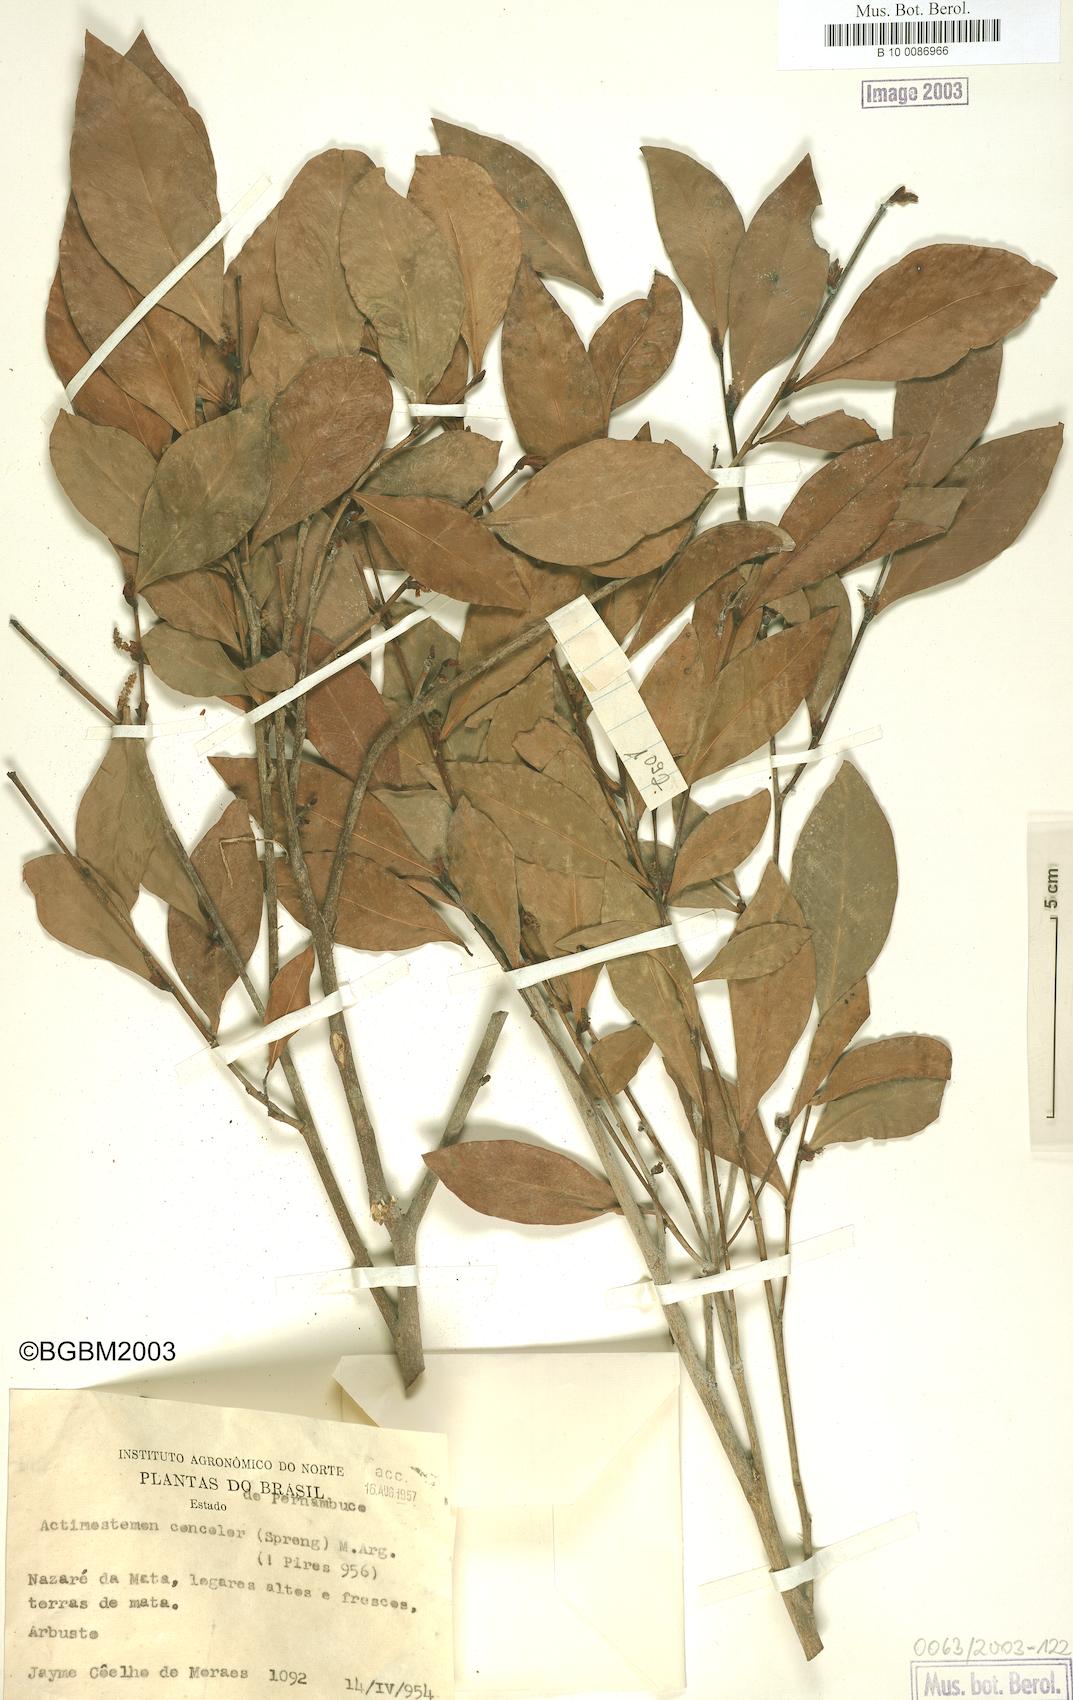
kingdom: Plantae
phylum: Tracheophyta
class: Magnoliopsida
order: Malpighiales
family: Euphorbiaceae
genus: Actinostemon
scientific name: Actinostemon concolor
